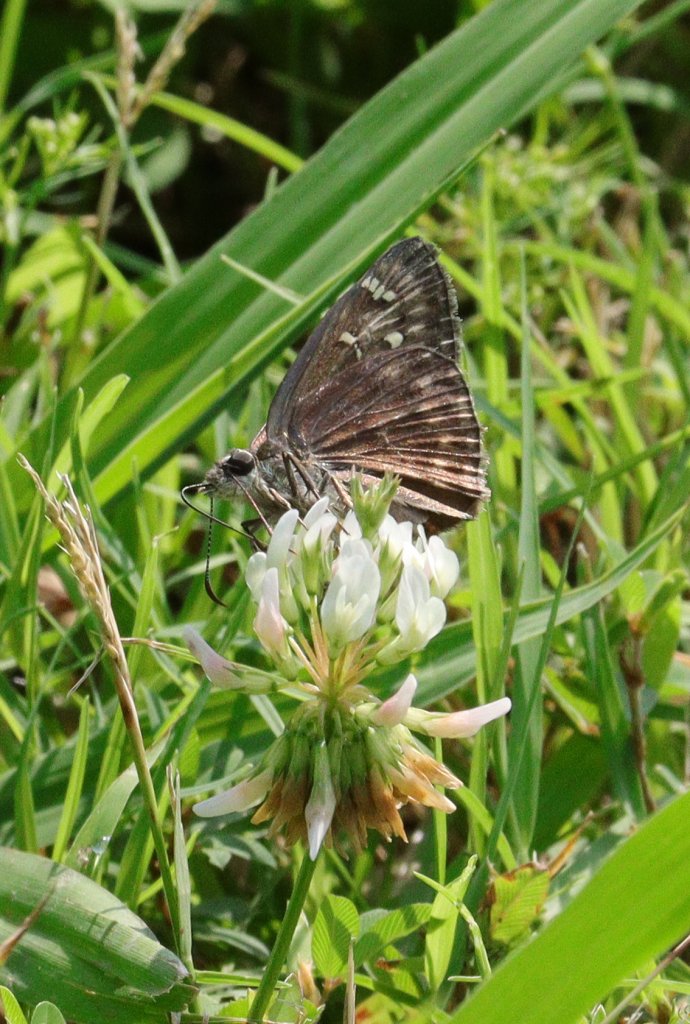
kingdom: Animalia
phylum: Arthropoda
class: Insecta
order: Lepidoptera
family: Hesperiidae
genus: Gesta
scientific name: Gesta
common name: Horace's Duskywing
